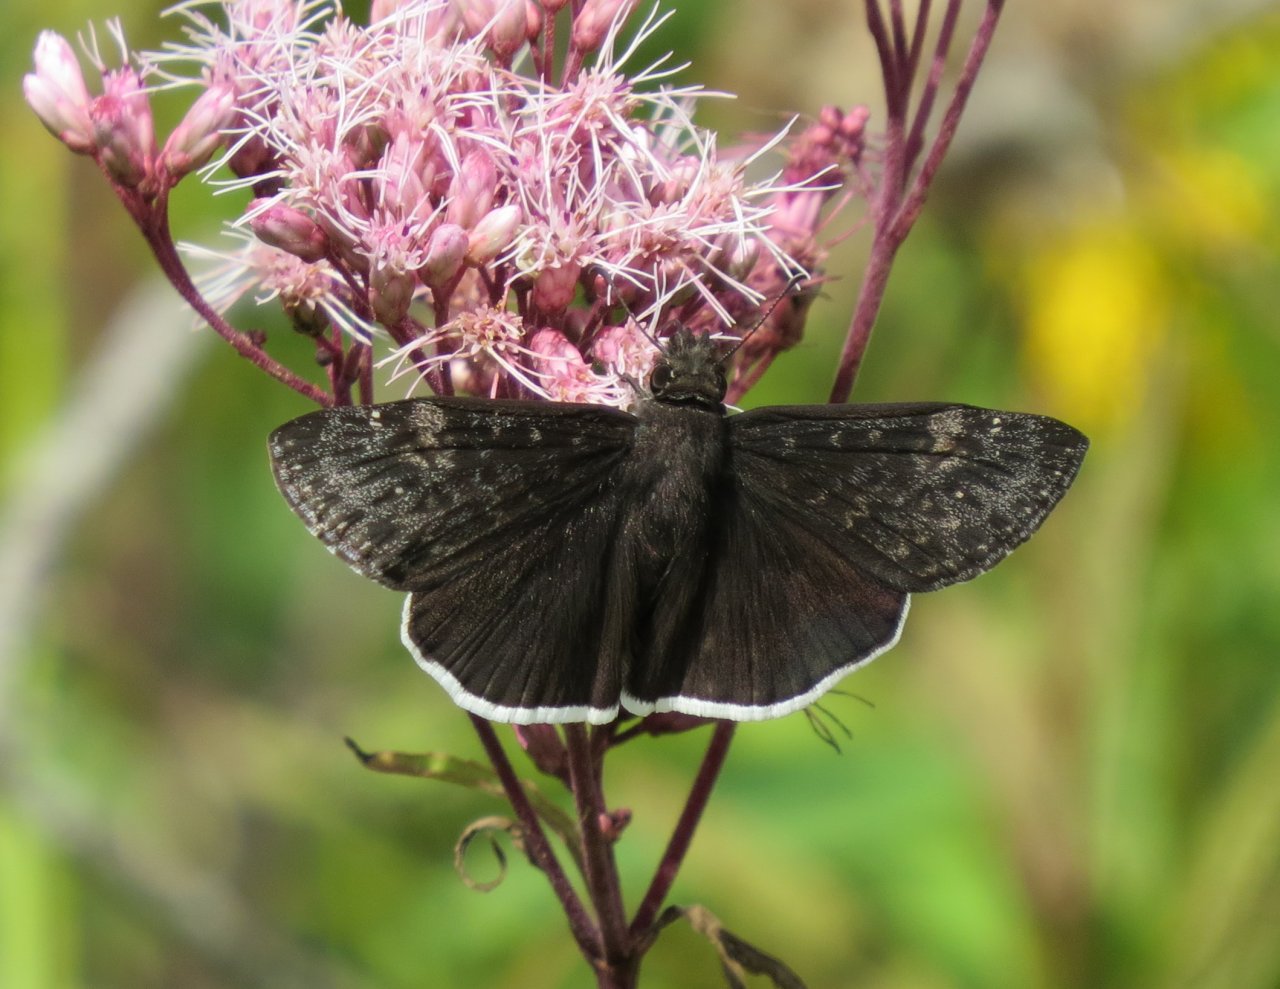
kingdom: Animalia
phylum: Arthropoda
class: Insecta
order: Lepidoptera
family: Hesperiidae
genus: Erynnis
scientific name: Erynnis funeralis
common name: Funereal Duskywing
